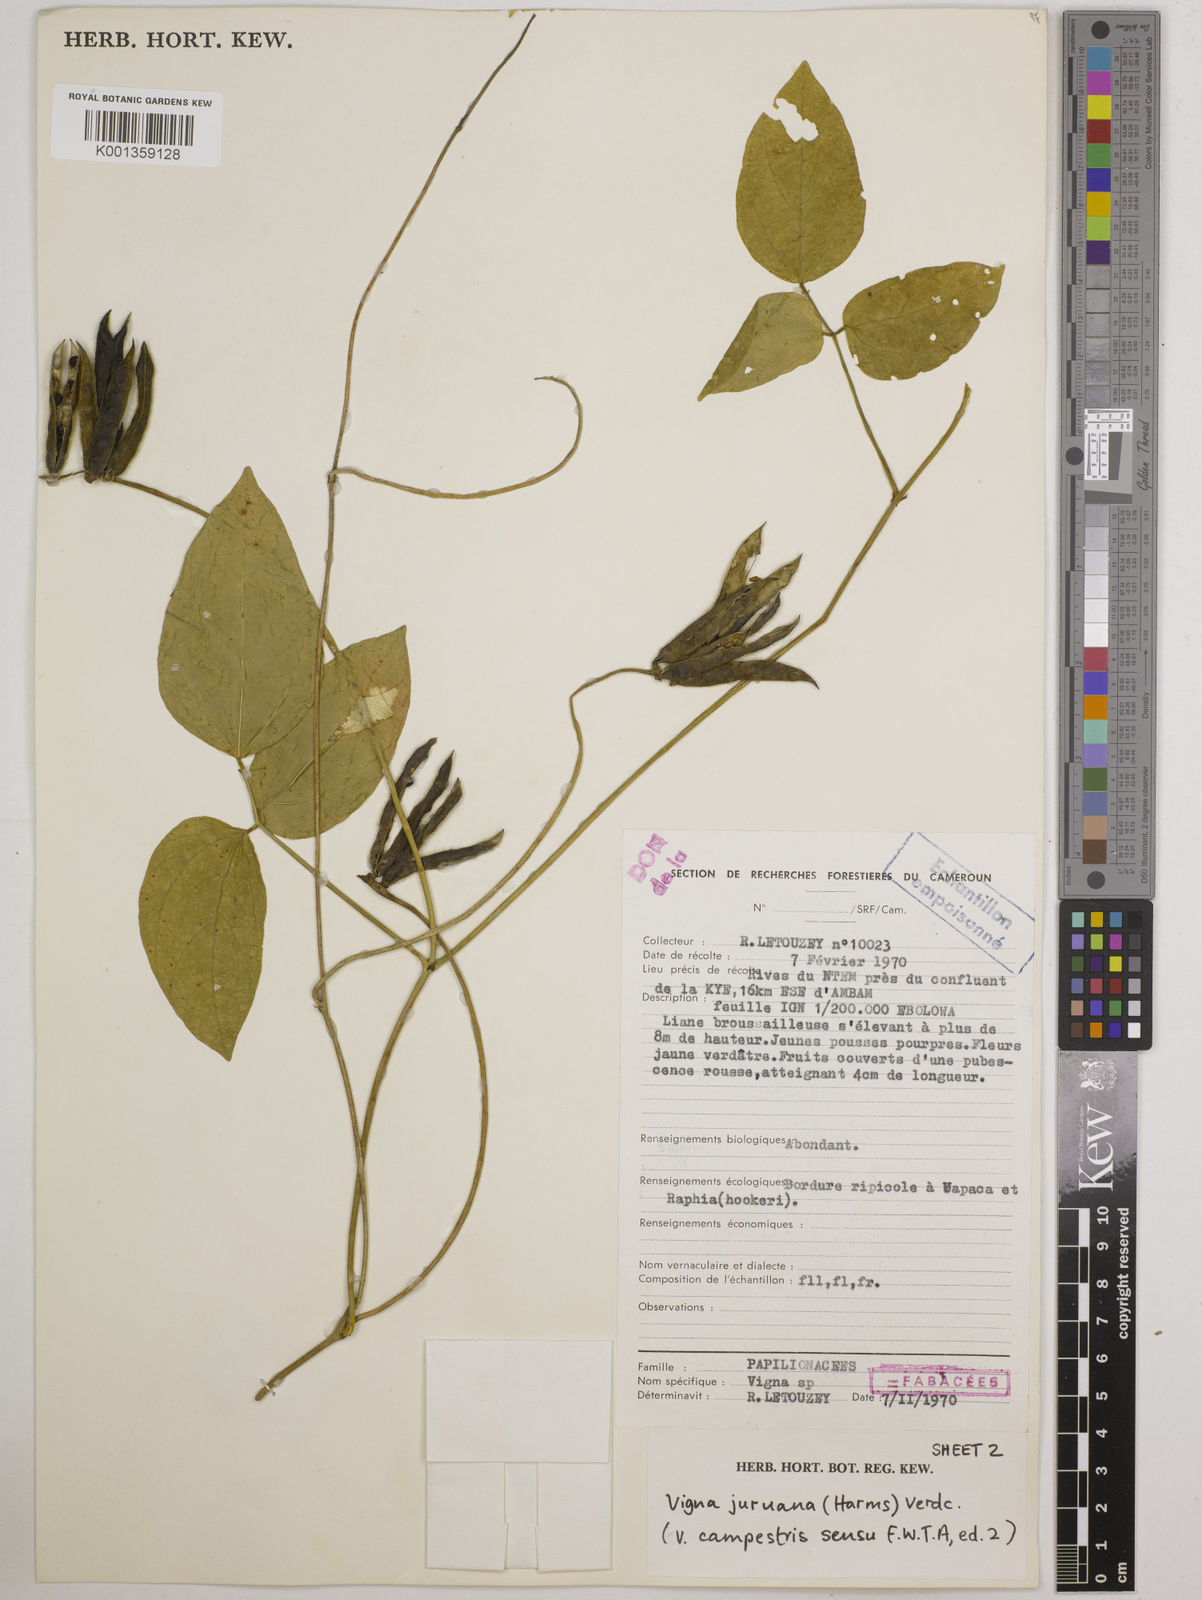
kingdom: Plantae
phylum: Tracheophyta
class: Magnoliopsida
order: Fabales
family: Fabaceae
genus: Vigna
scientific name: Vigna juruana
